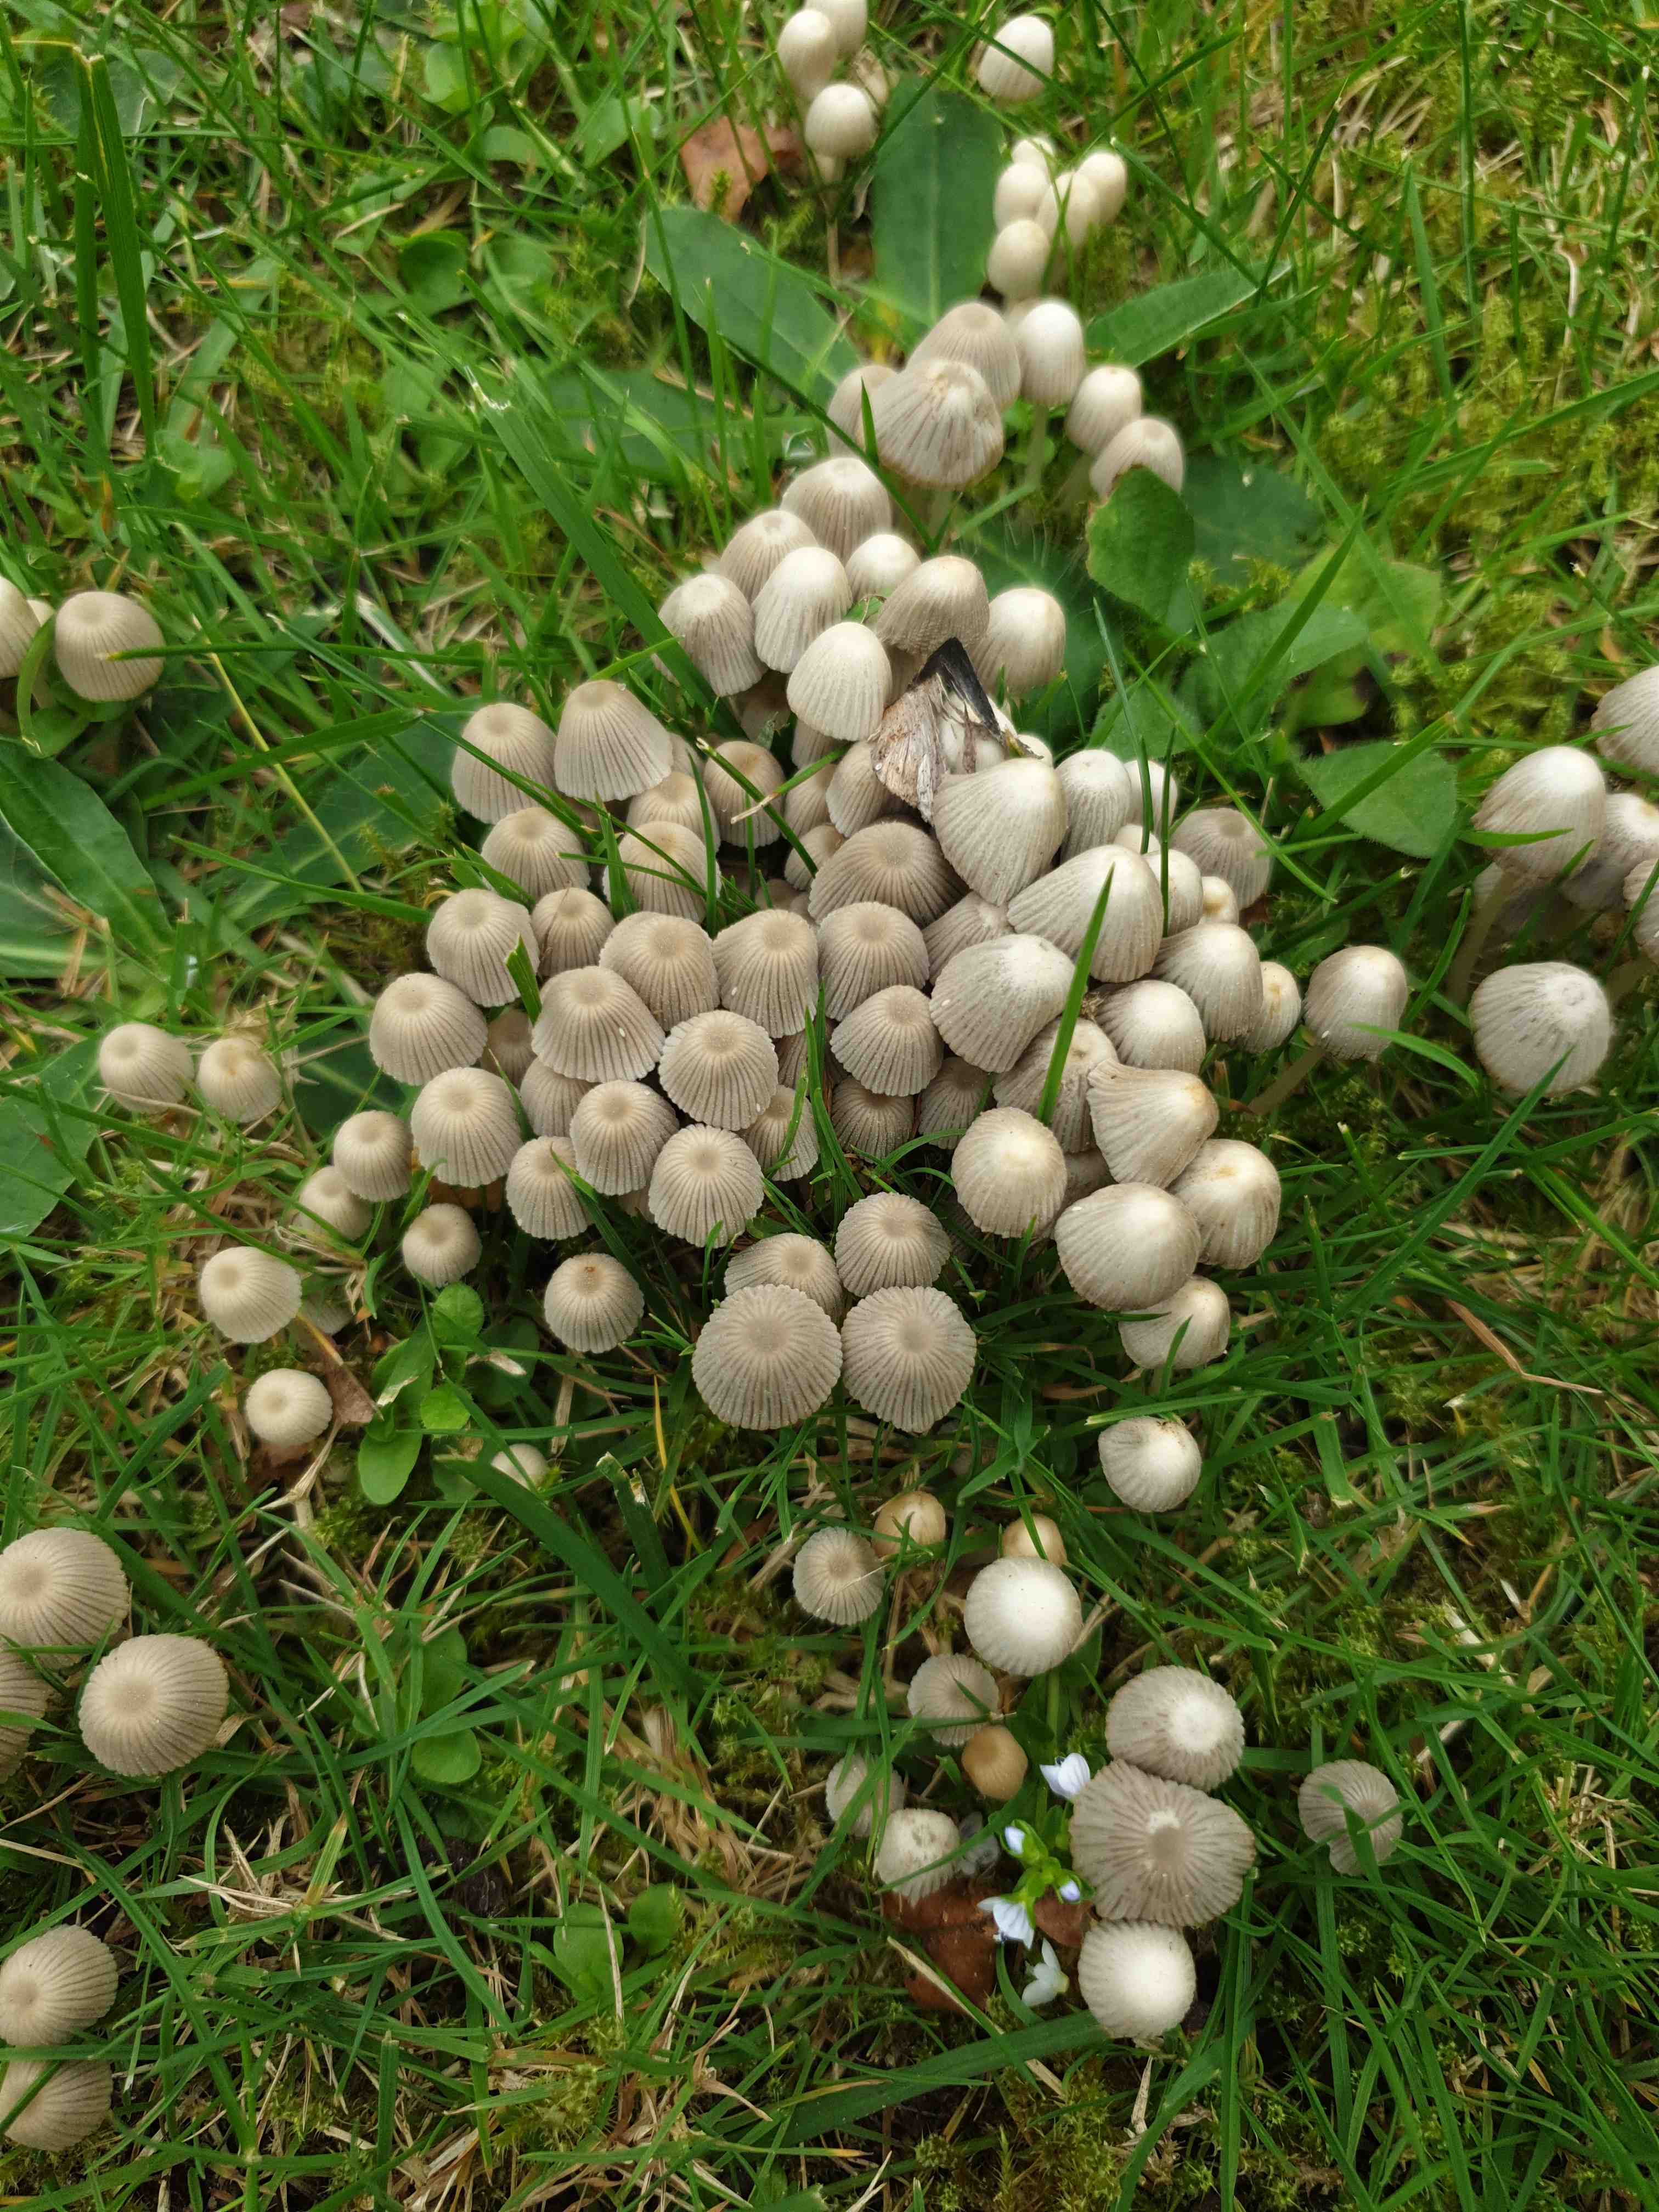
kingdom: Fungi
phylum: Basidiomycota
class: Agaricomycetes
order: Agaricales
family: Psathyrellaceae
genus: Coprinellus
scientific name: Coprinellus disseminatus
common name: bredsået blækhat
